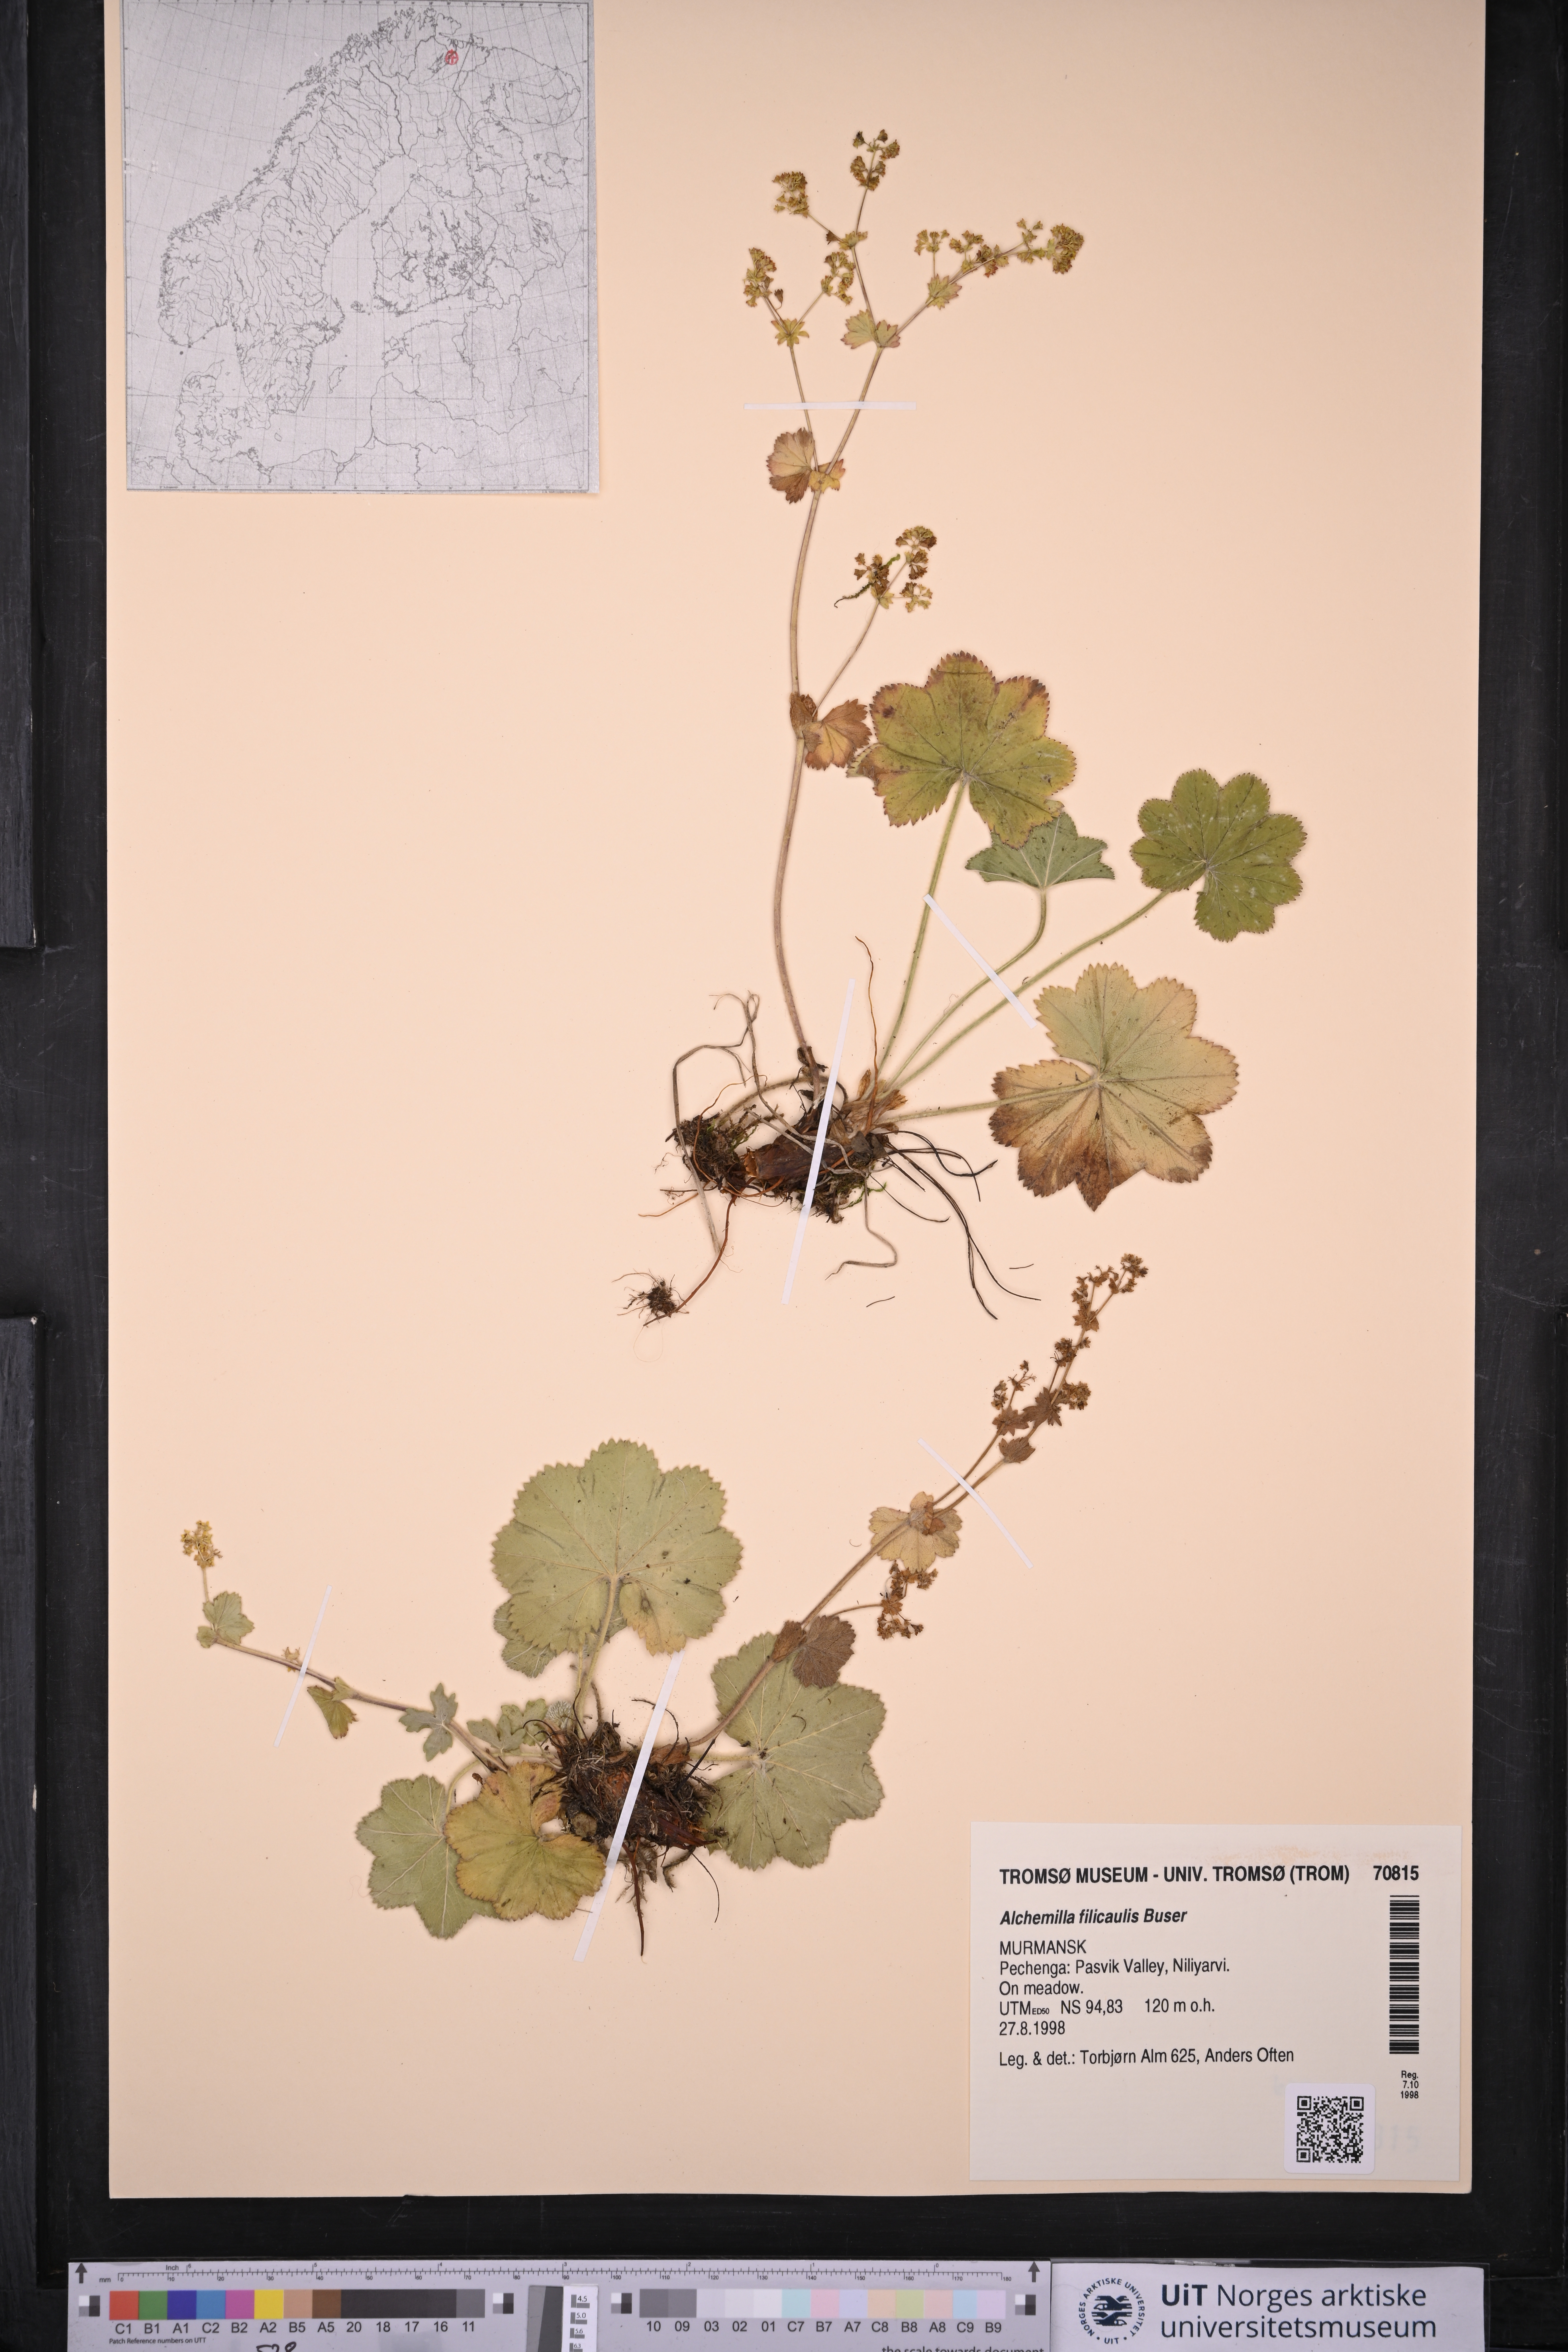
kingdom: Plantae
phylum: Tracheophyta
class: Magnoliopsida
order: Rosales
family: Rosaceae
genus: Alchemilla
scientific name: Alchemilla filicaulis
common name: Hairy lady's-mantle
